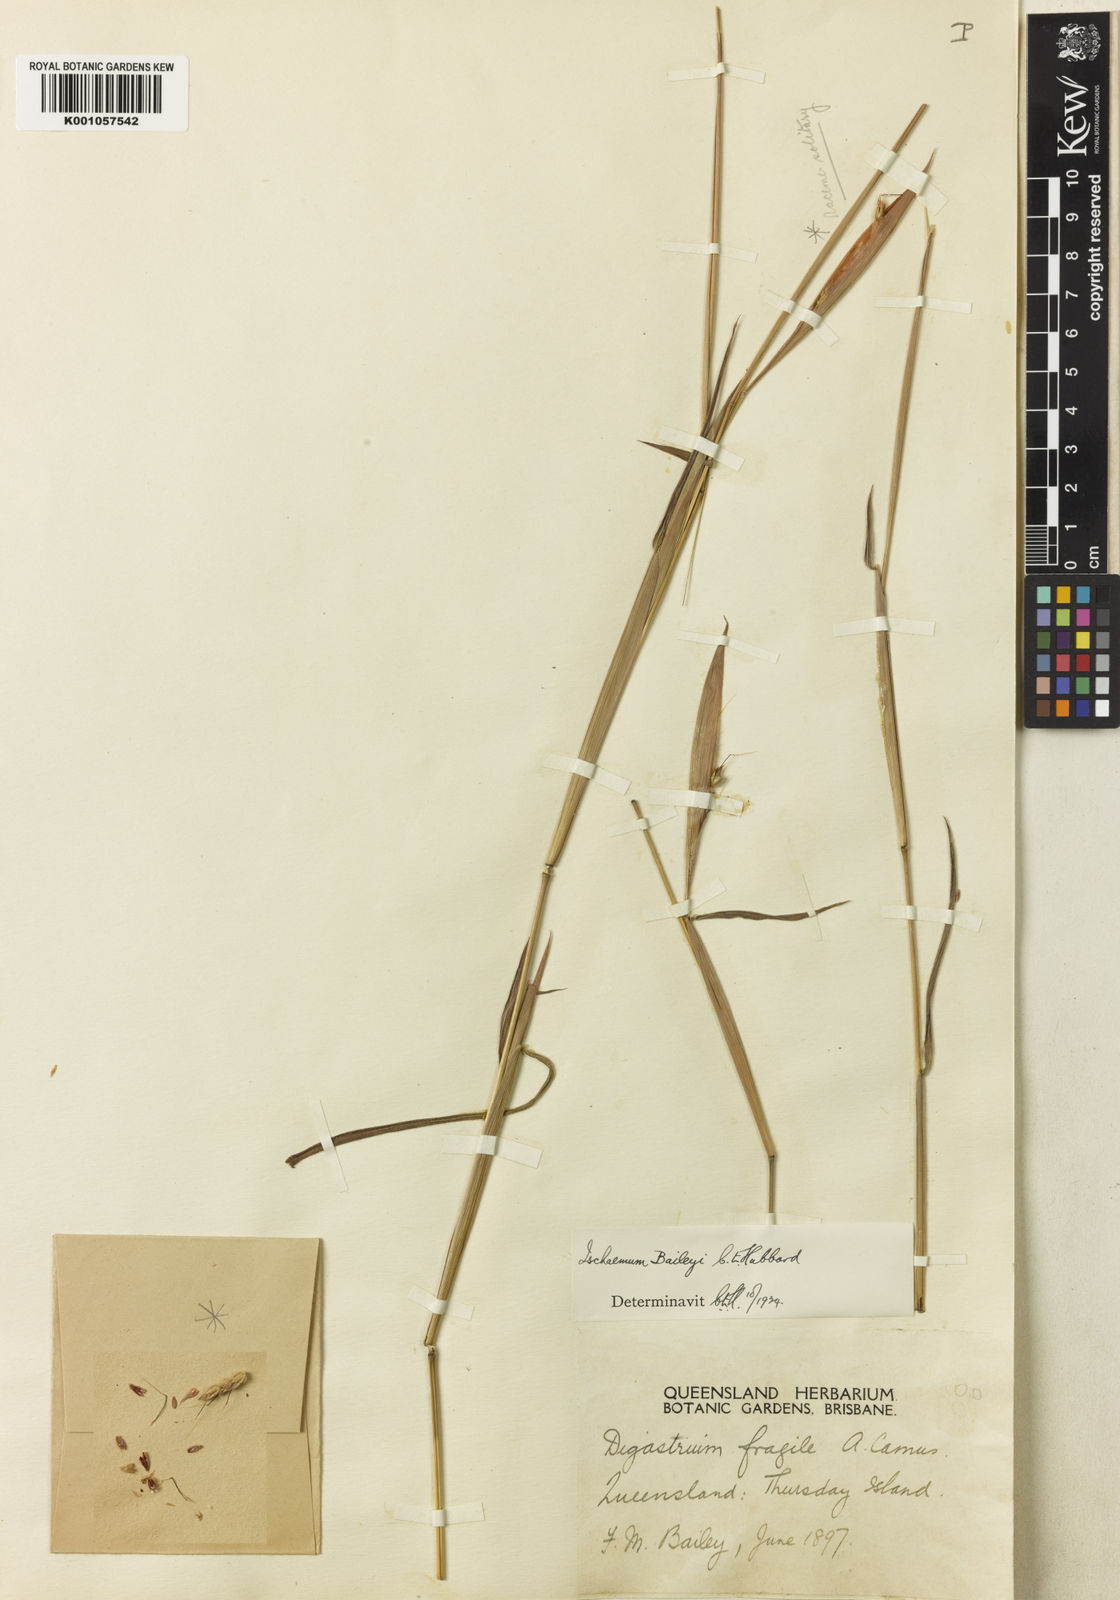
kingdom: Plantae
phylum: Tracheophyta
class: Liliopsida
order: Poales
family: Poaceae
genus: Ischaemum
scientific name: Ischaemum fragile
